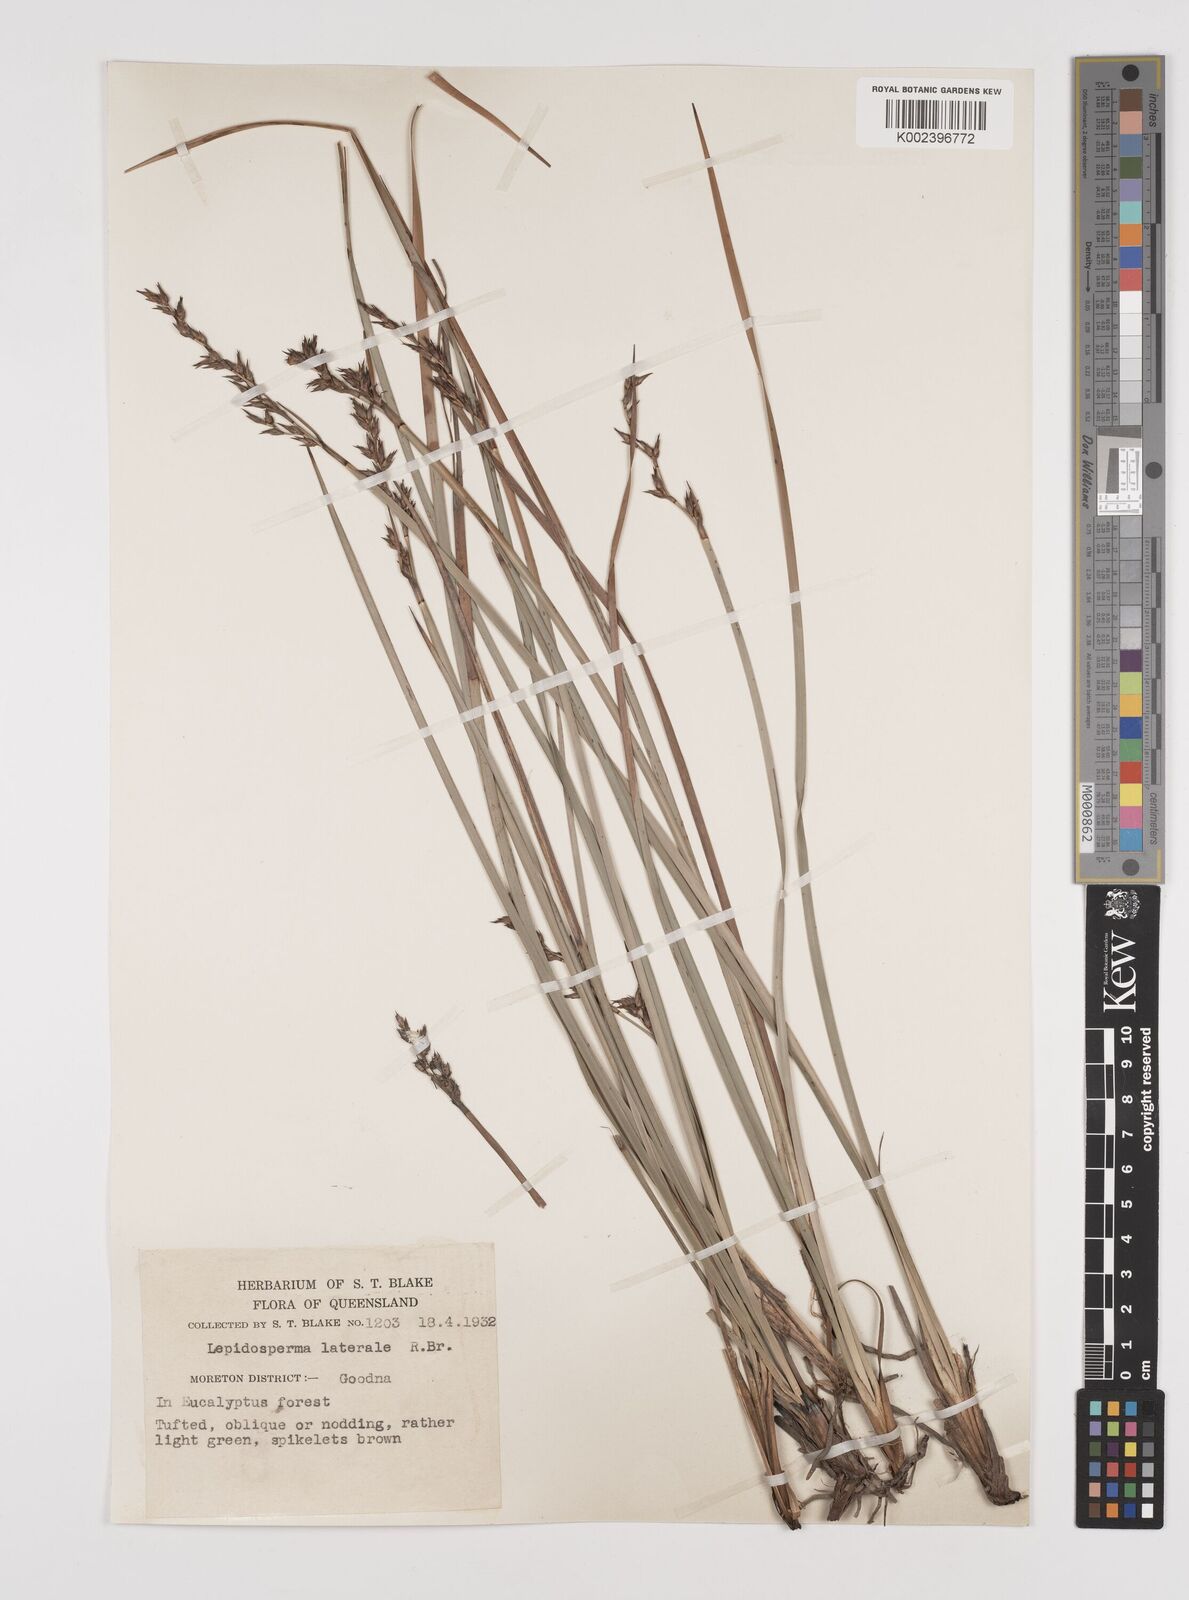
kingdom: Plantae
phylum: Tracheophyta
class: Liliopsida
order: Poales
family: Cyperaceae
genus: Lepidosperma
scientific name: Lepidosperma laterale
